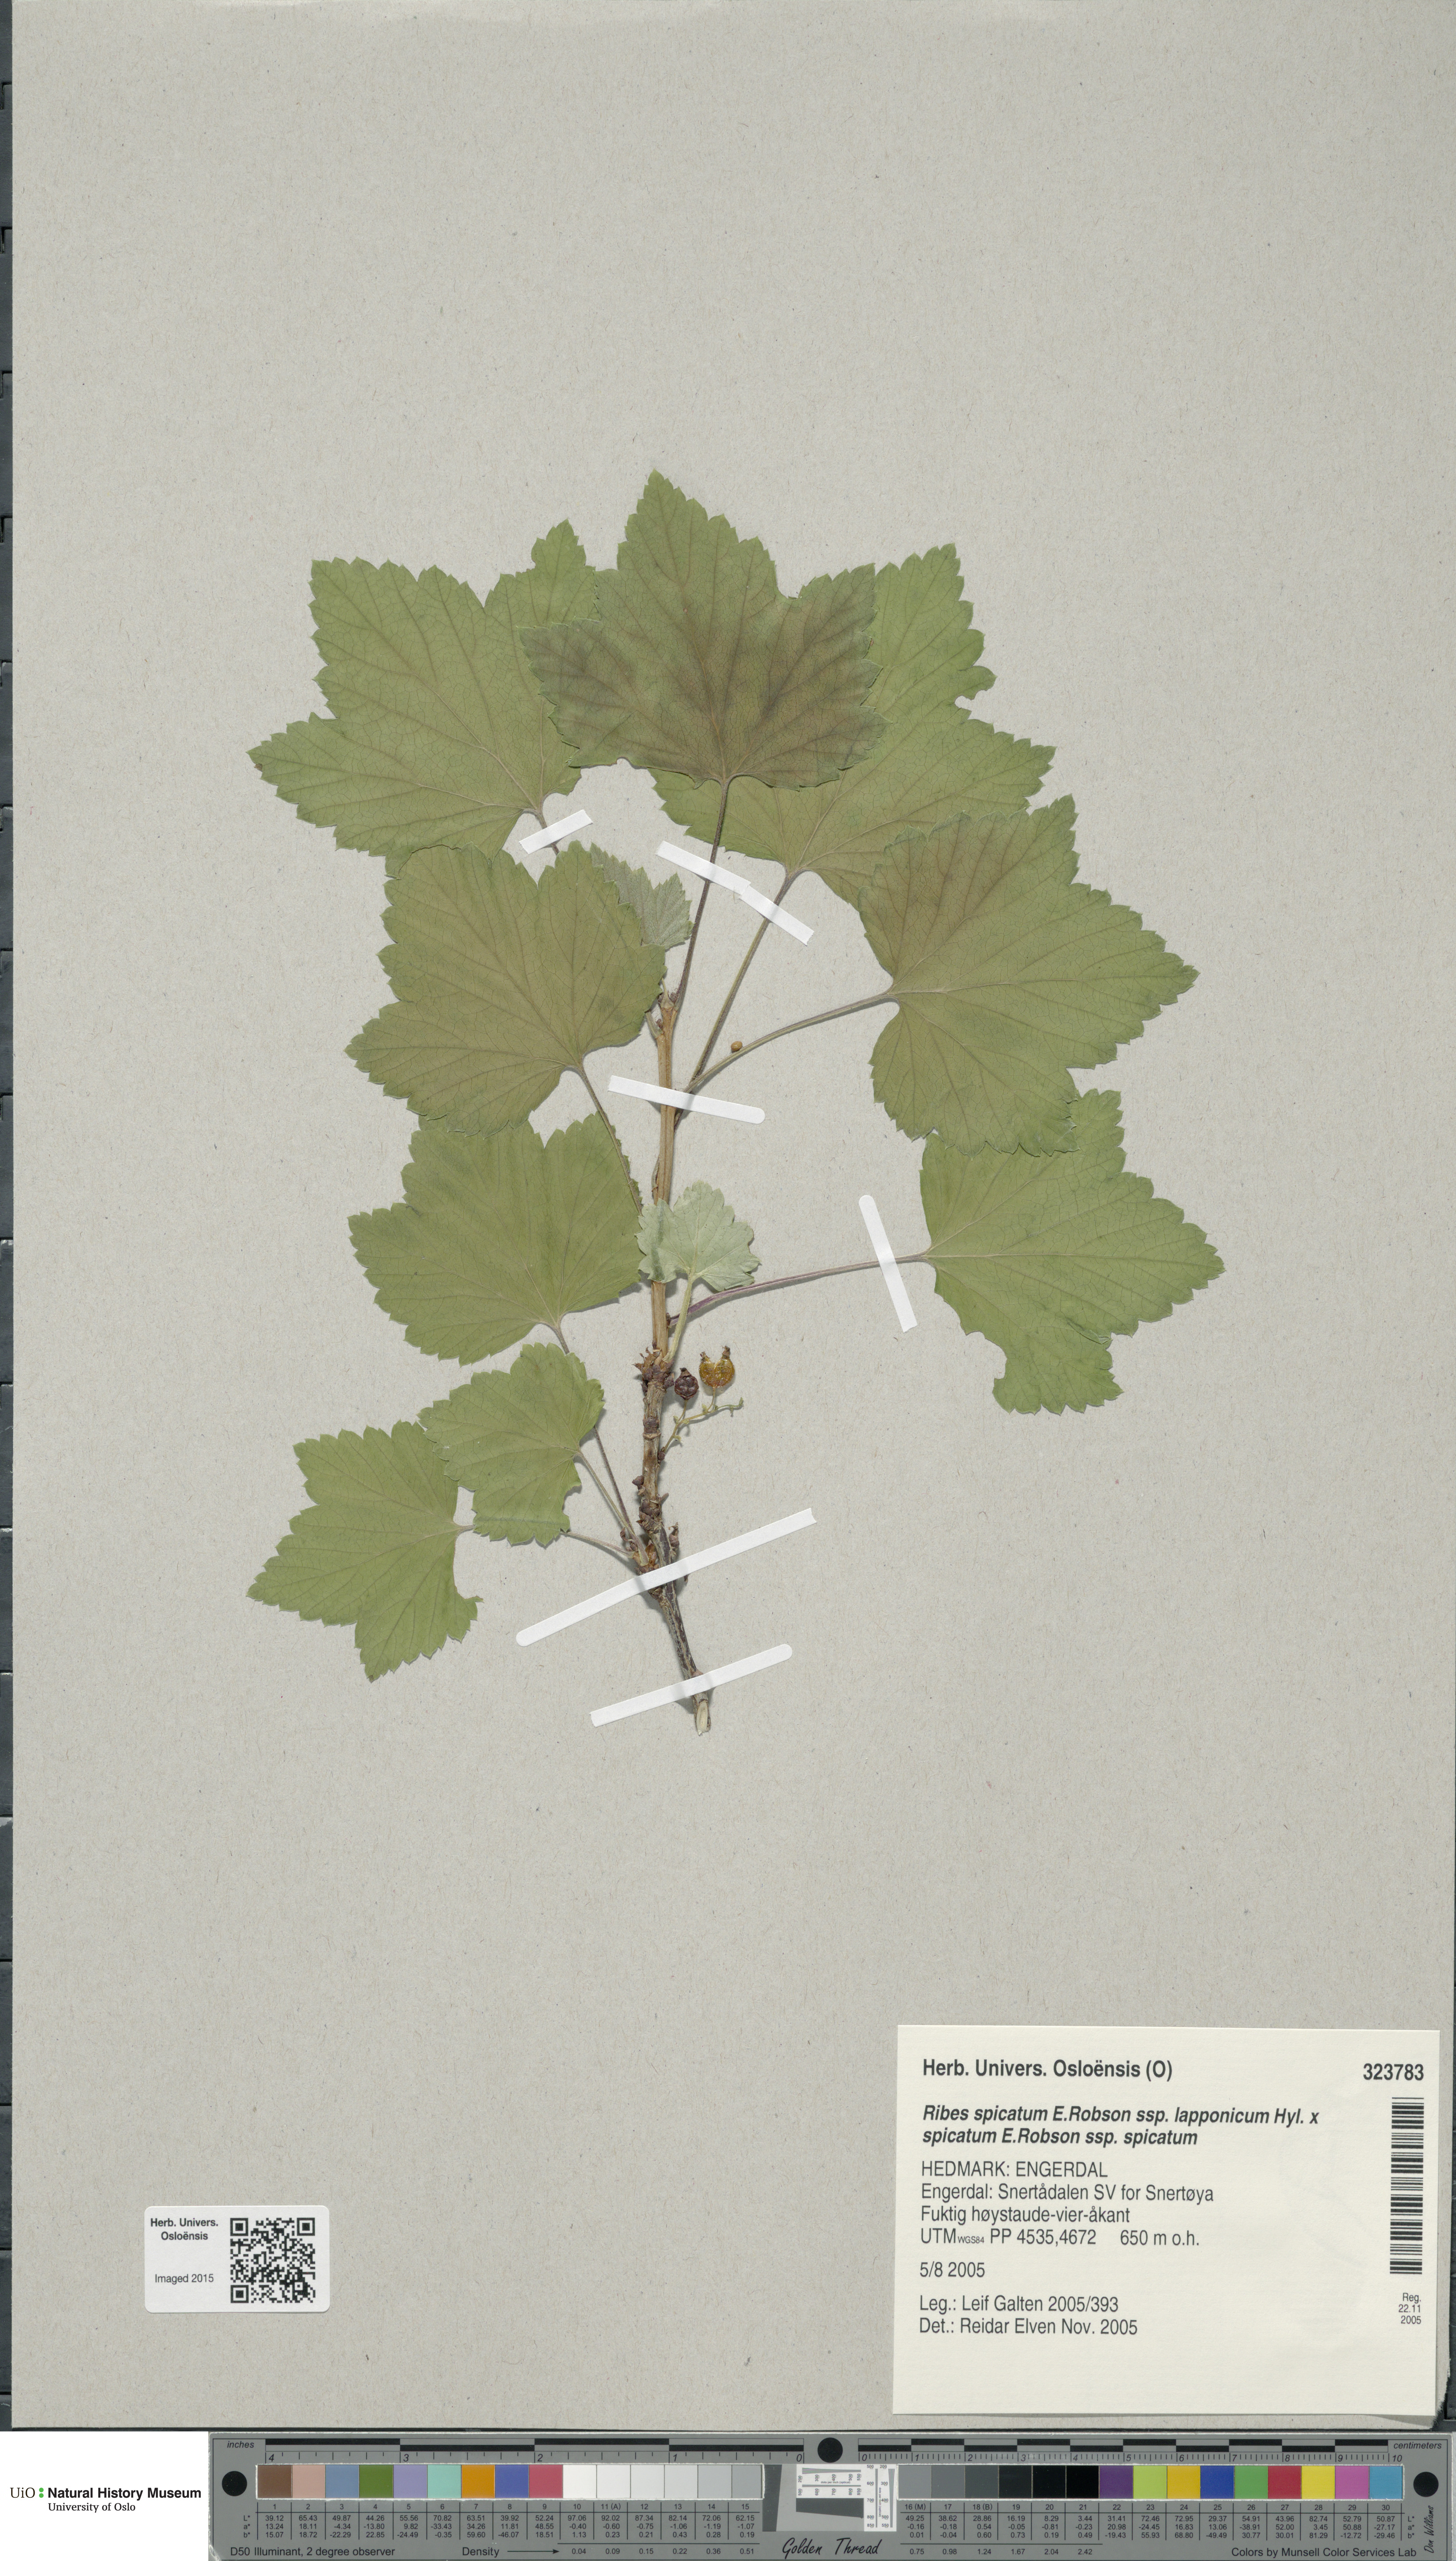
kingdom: Plantae
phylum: Tracheophyta
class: Magnoliopsida
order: Saxifragales
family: Grossulariaceae
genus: Ribes
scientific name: Ribes
